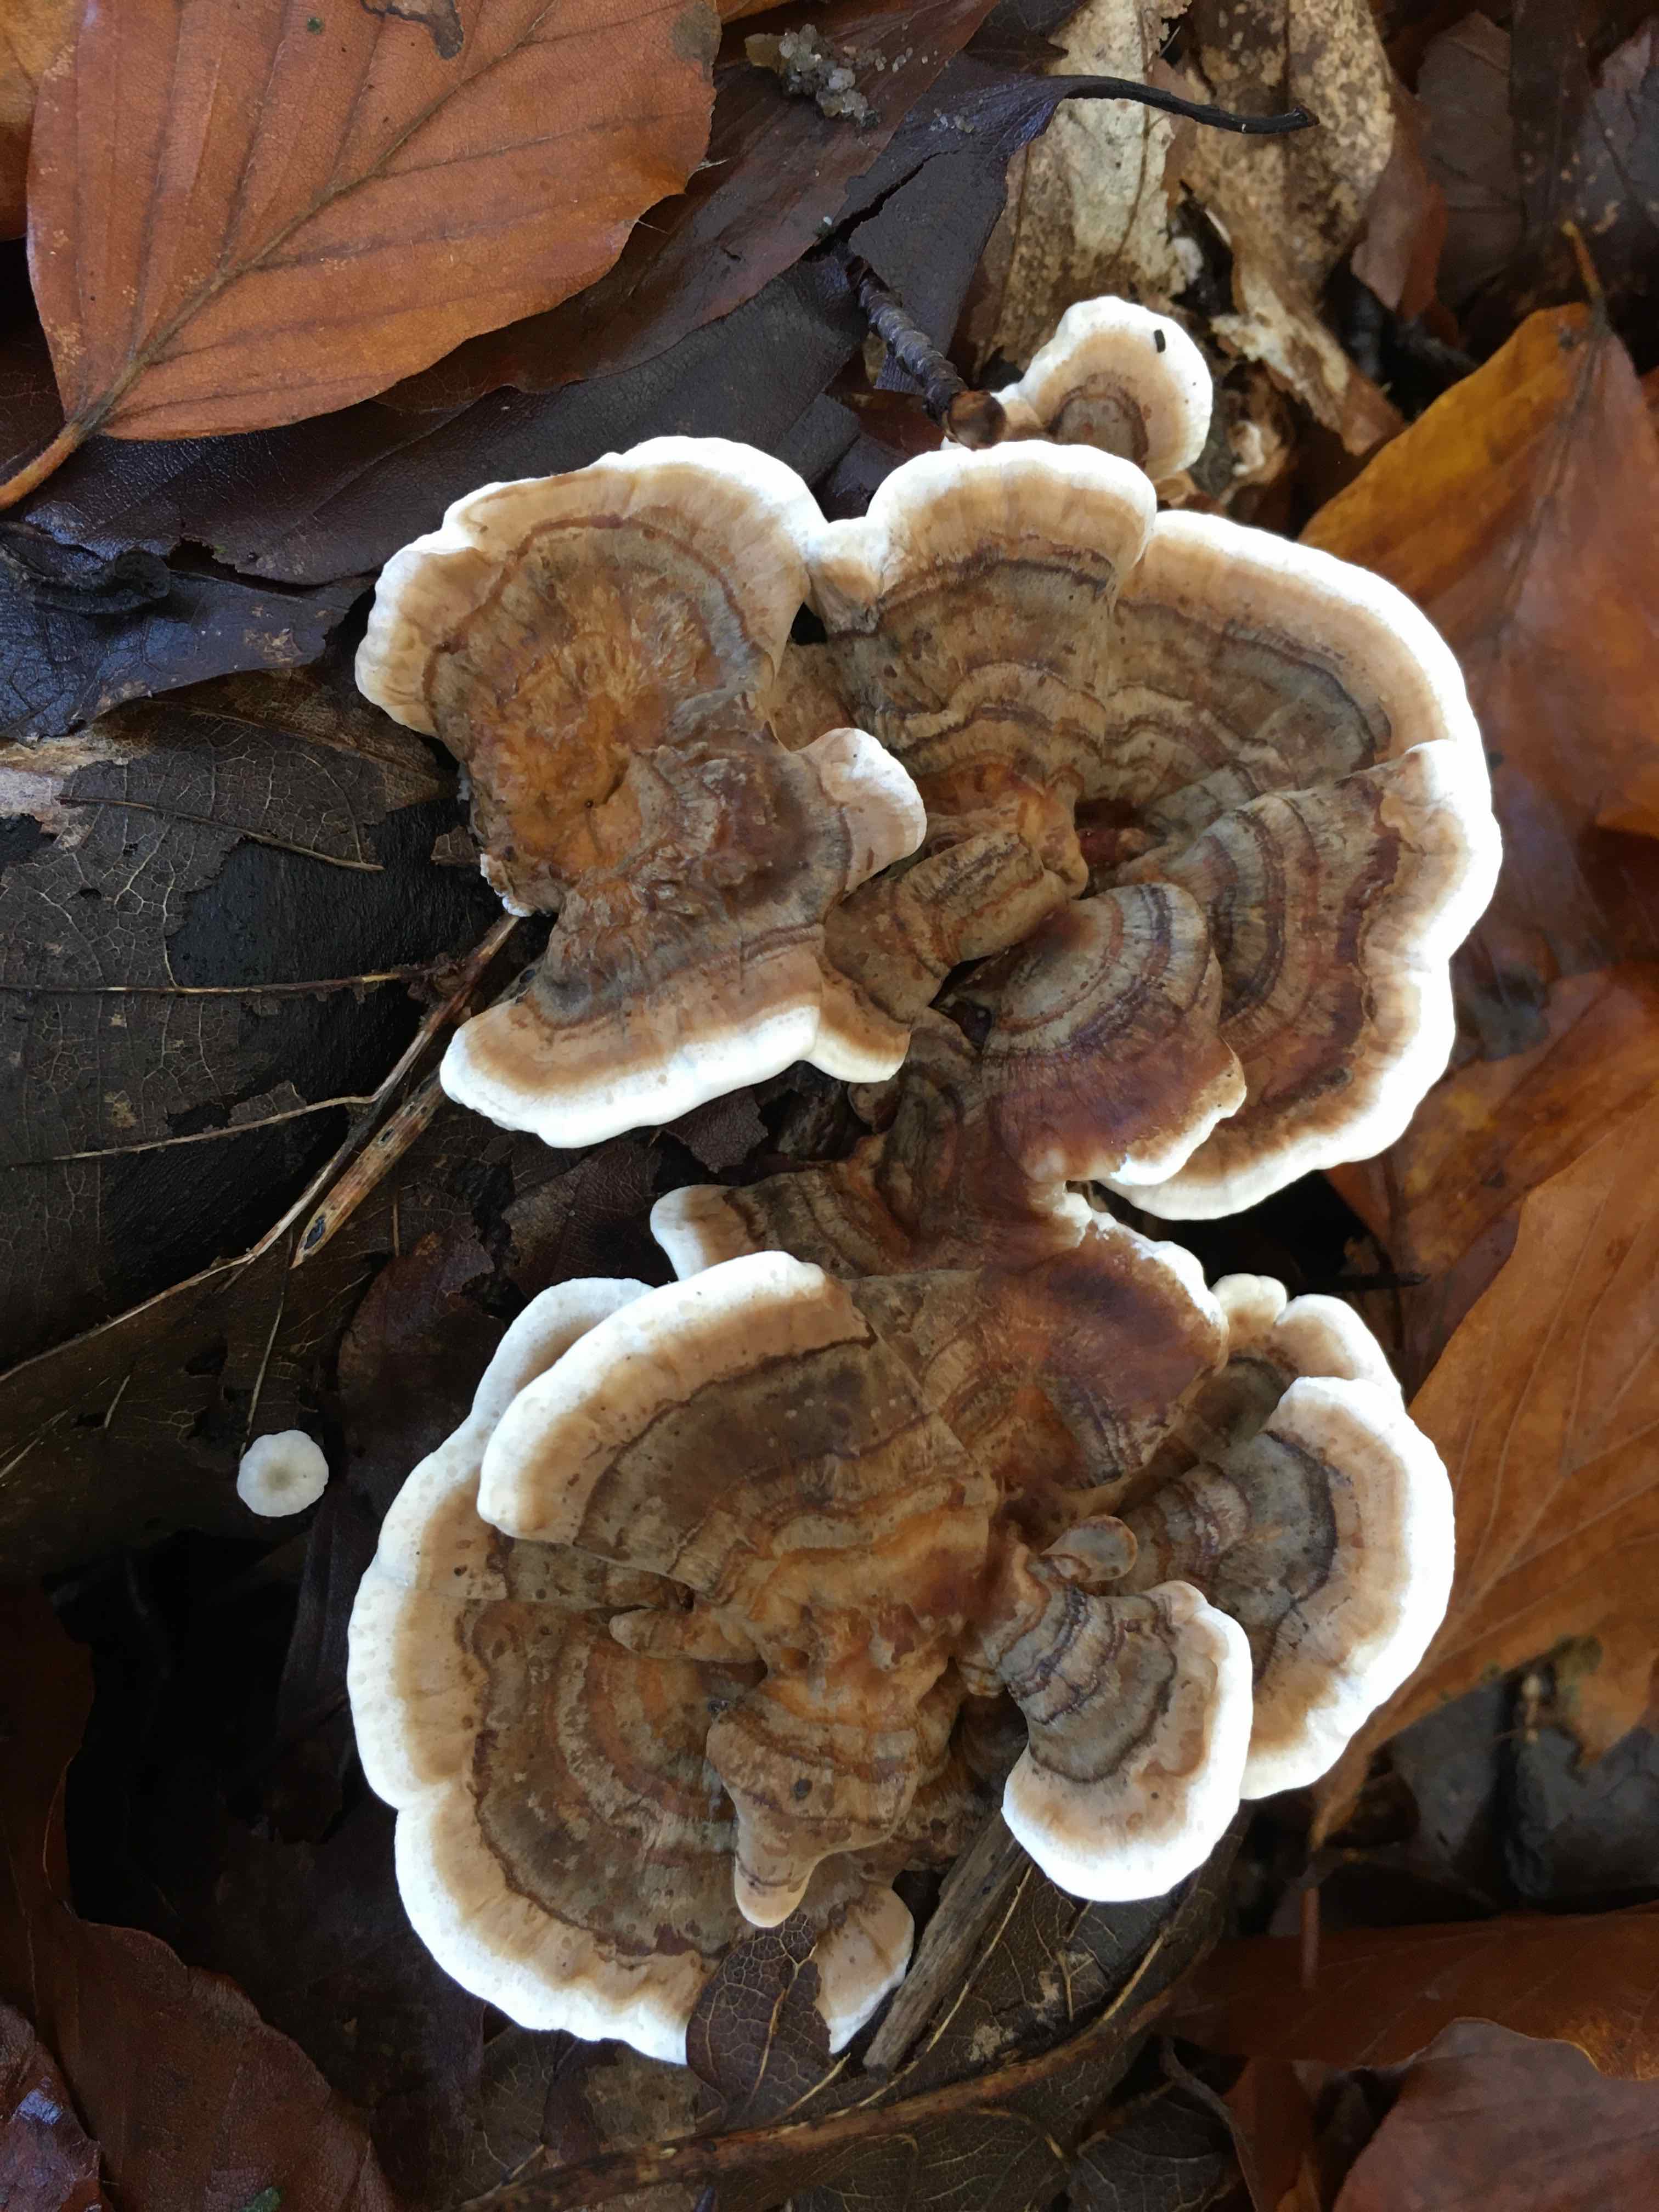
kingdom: Fungi
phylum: Basidiomycota
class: Agaricomycetes
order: Polyporales
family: Polyporaceae
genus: Trametes
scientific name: Trametes versicolor
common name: broget læderporesvamp
